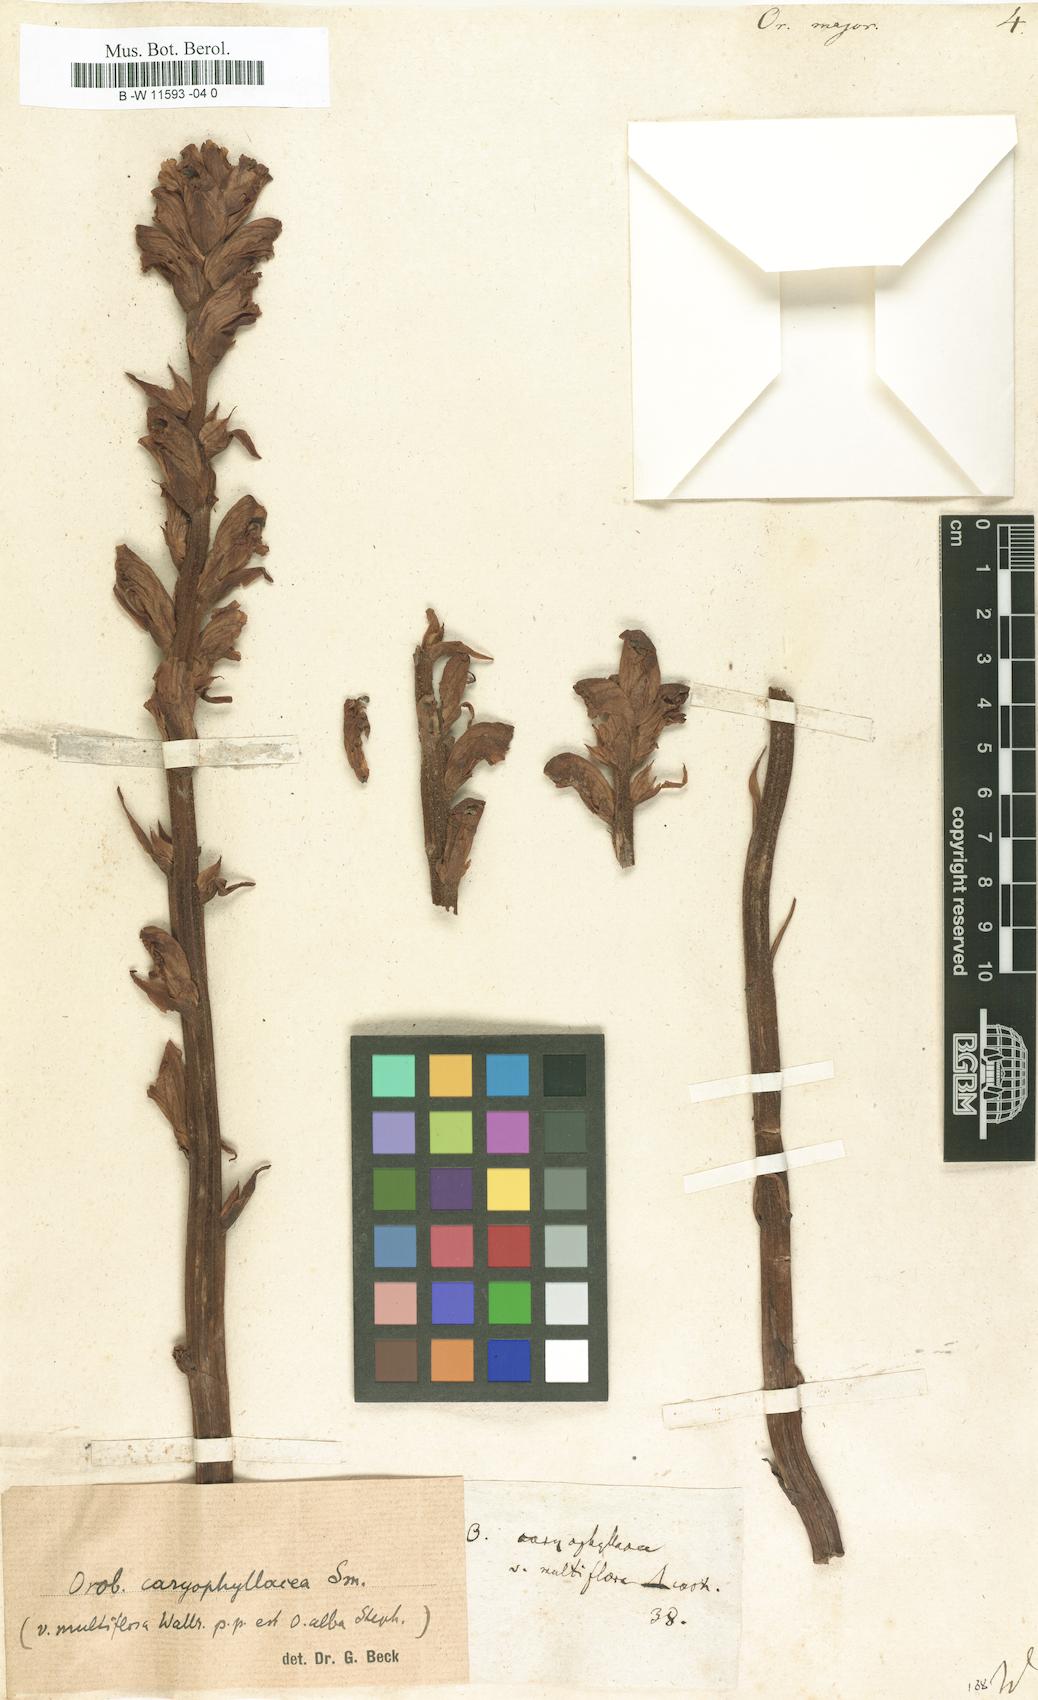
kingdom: Plantae
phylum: Tracheophyta
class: Magnoliopsida
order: Lamiales
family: Orobanchaceae
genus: Orobanche
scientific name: Orobanche major
